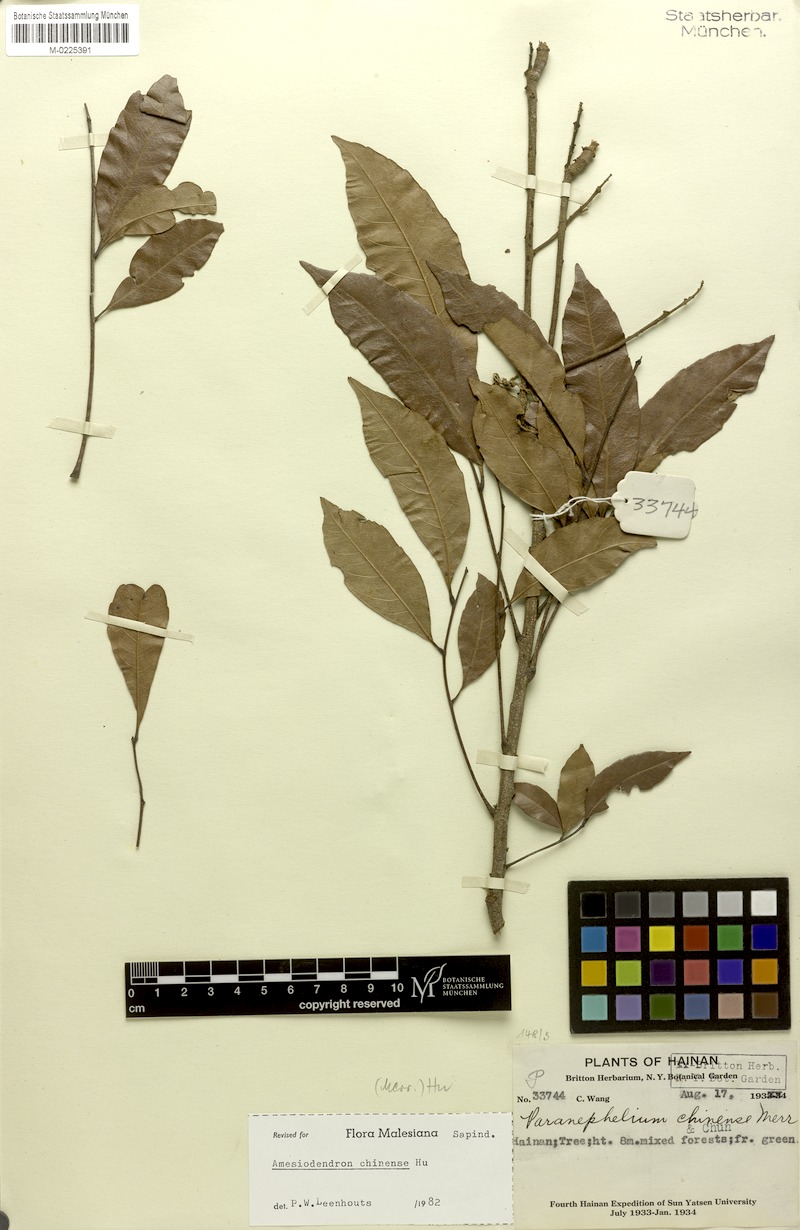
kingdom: Plantae
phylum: Tracheophyta
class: Magnoliopsida
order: Sapindales
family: Sapindaceae
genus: Amesiodendron
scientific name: Amesiodendron chinense
